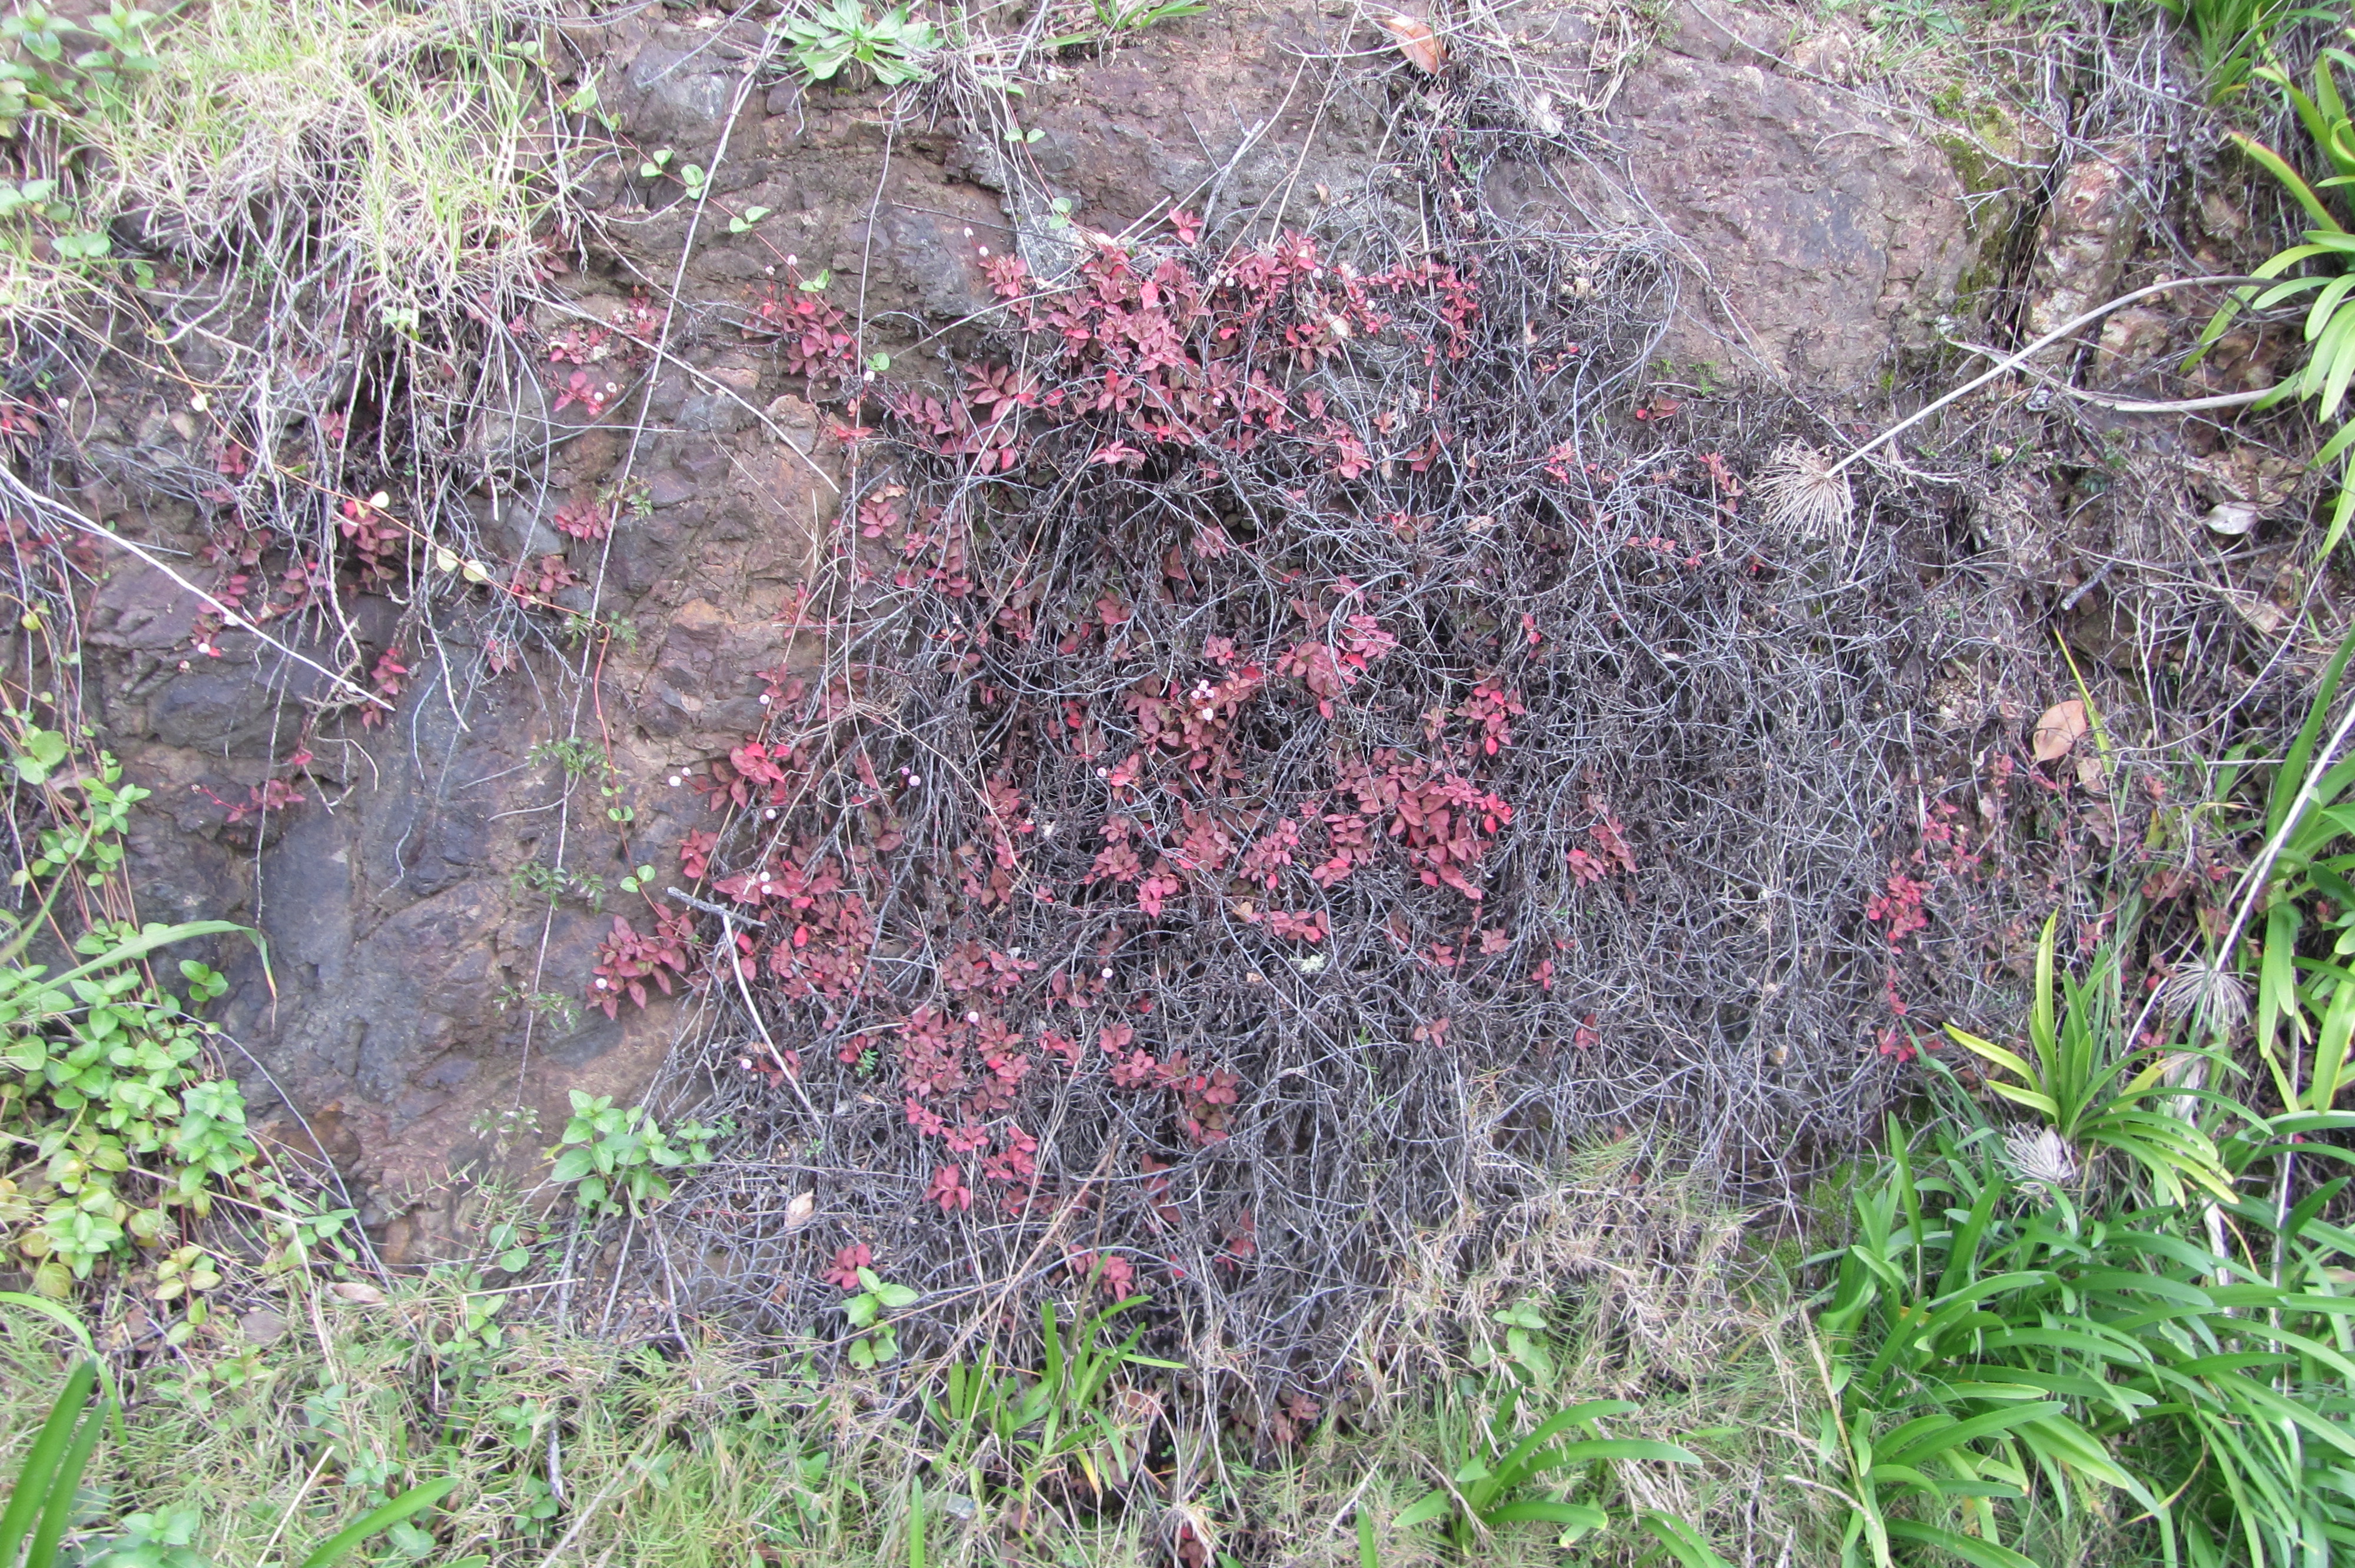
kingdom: Plantae
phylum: Tracheophyta
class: Magnoliopsida
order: Caryophyllales
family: Polygonaceae
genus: Persicaria
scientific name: Persicaria capitata
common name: Pinkhead smartweed
